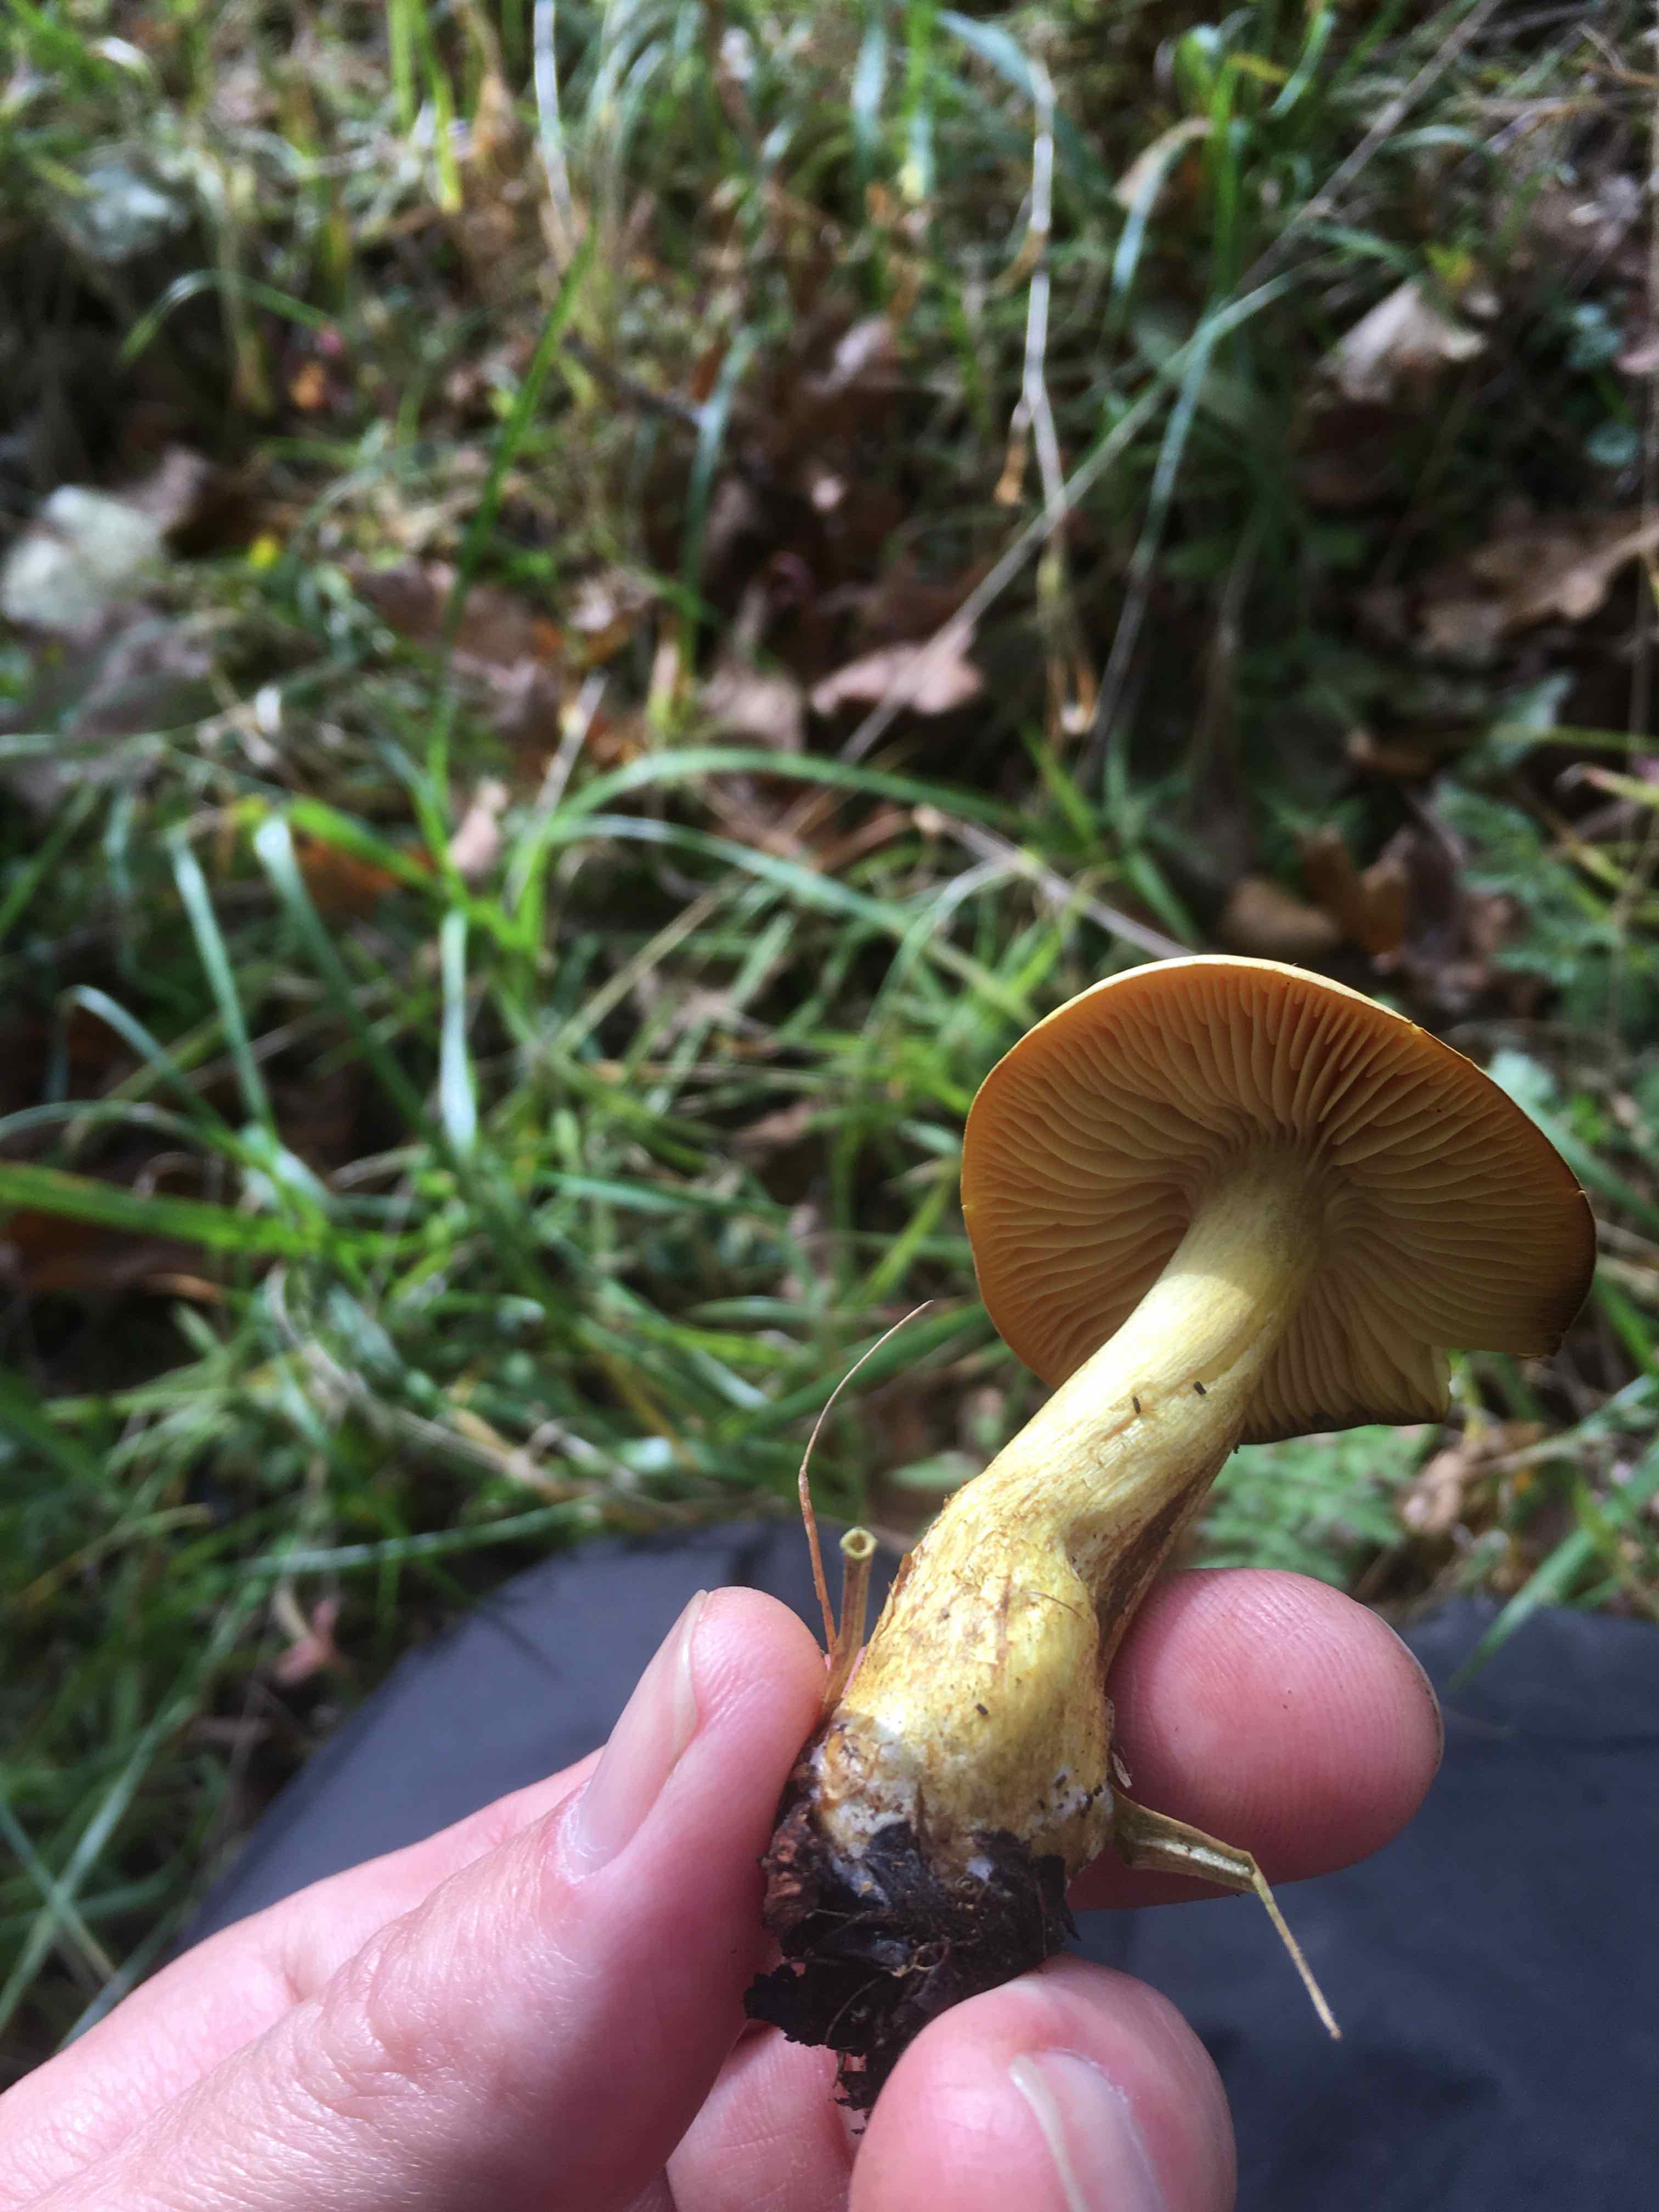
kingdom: Fungi
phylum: Basidiomycota
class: Agaricomycetes
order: Agaricales
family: Tricholomataceae
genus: Tricholoma
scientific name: Tricholoma sulphureum
